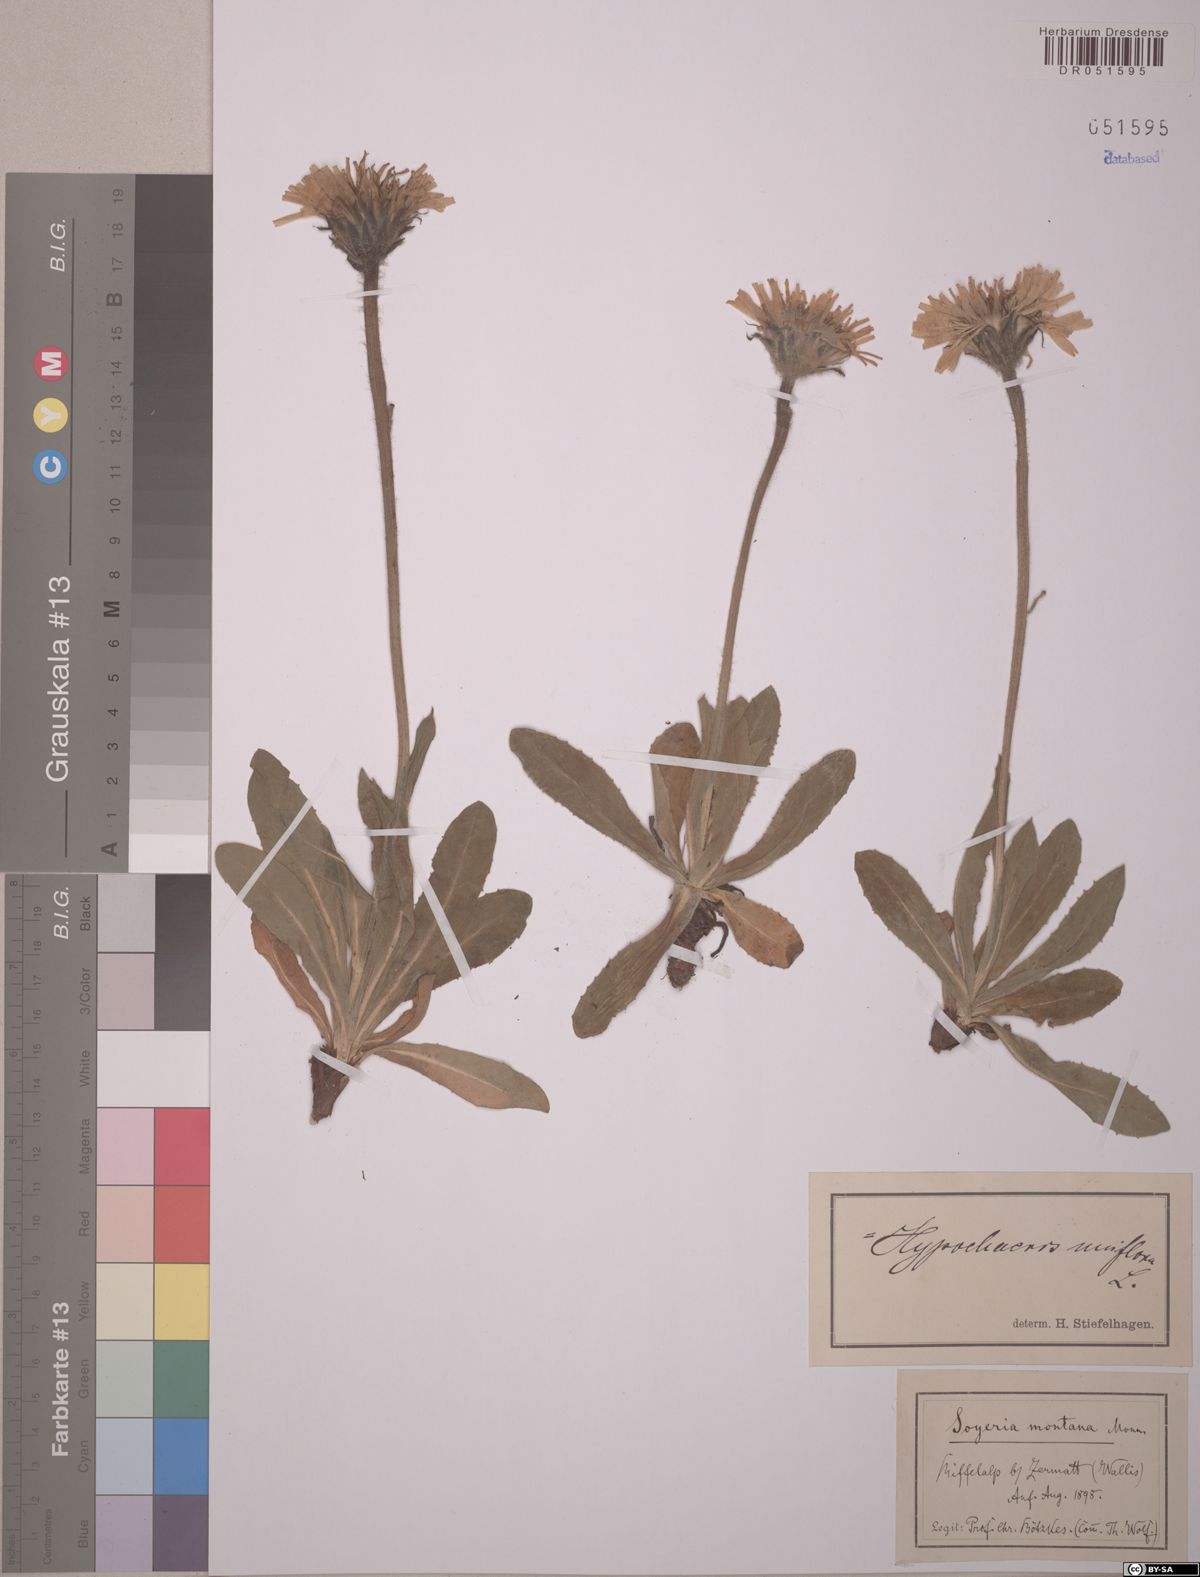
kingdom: Plantae
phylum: Tracheophyta
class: Magnoliopsida
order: Asterales
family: Asteraceae
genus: Trommsdorffia
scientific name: Trommsdorffia uniflora
